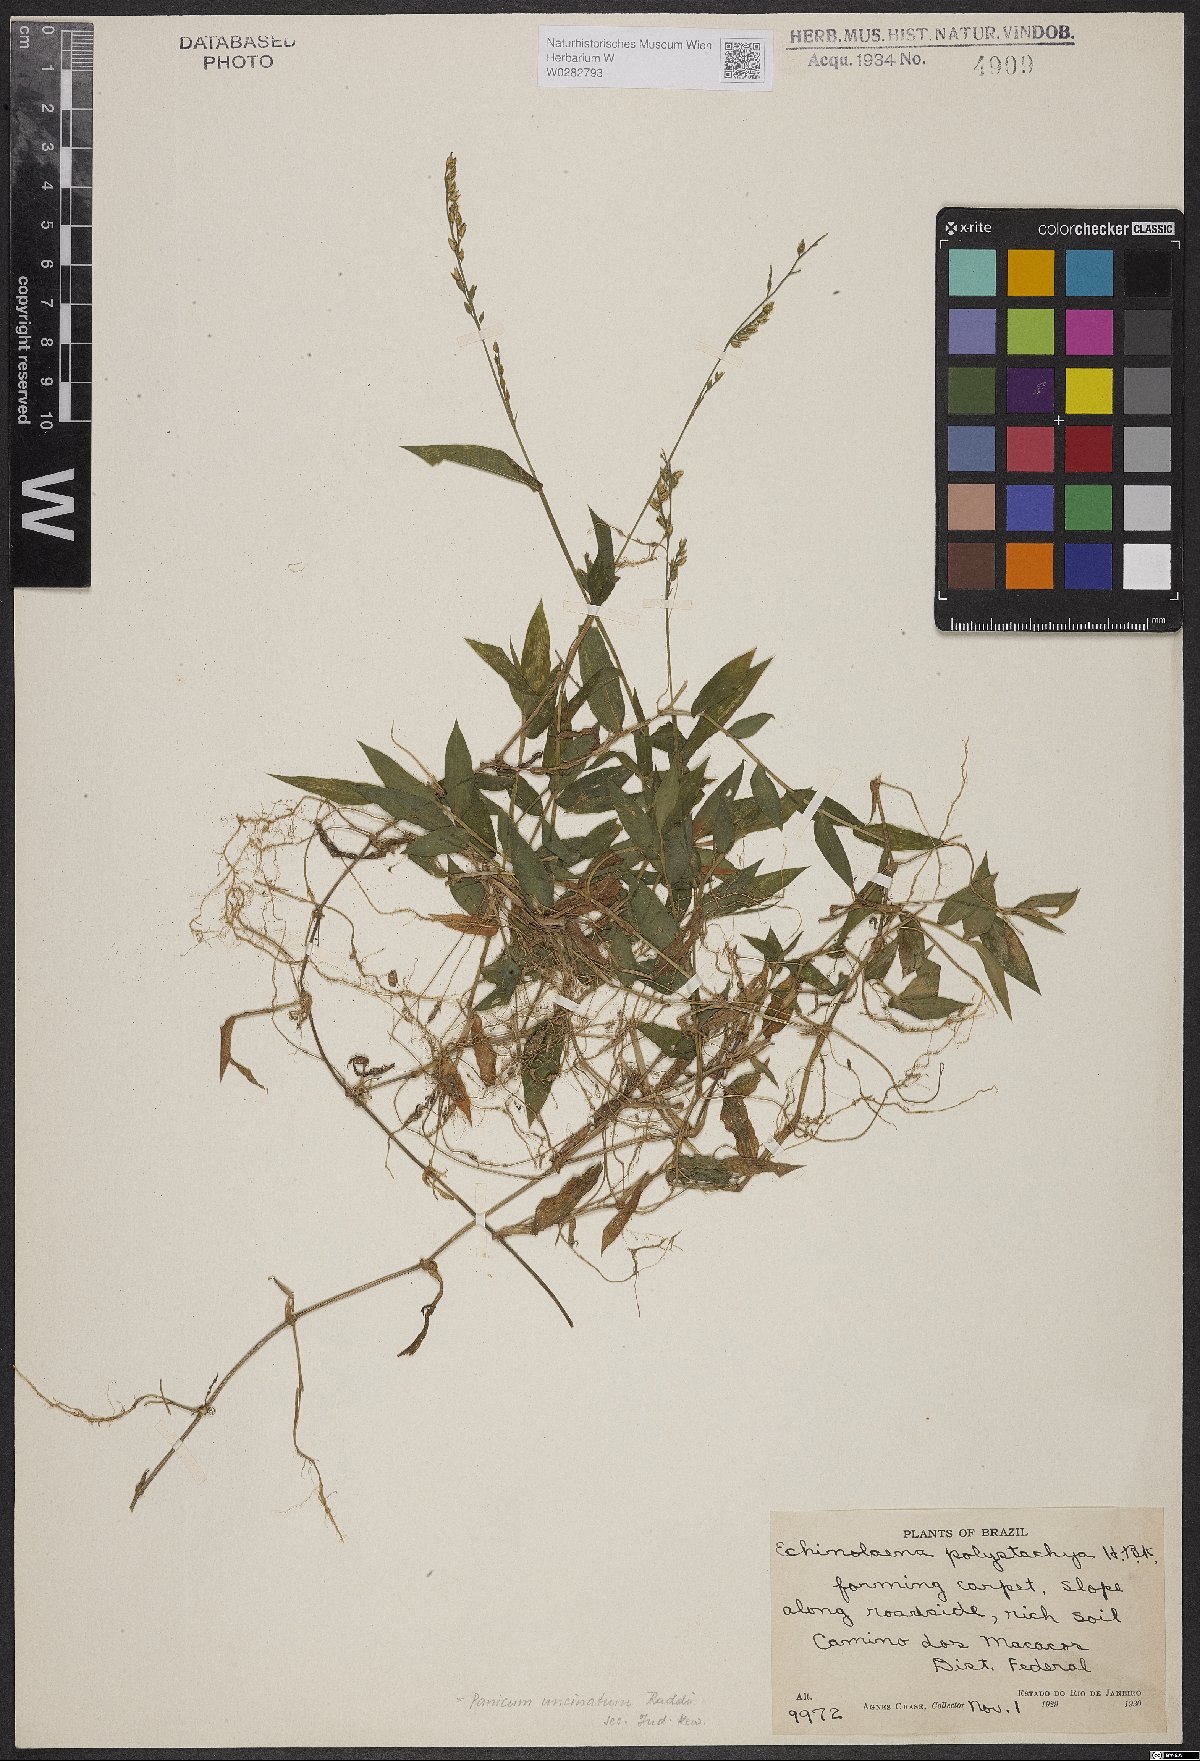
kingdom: Plantae
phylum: Tracheophyta
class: Liliopsida
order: Poales
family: Poaceae
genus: Pseudechinolaena
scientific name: Pseudechinolaena polystachya
